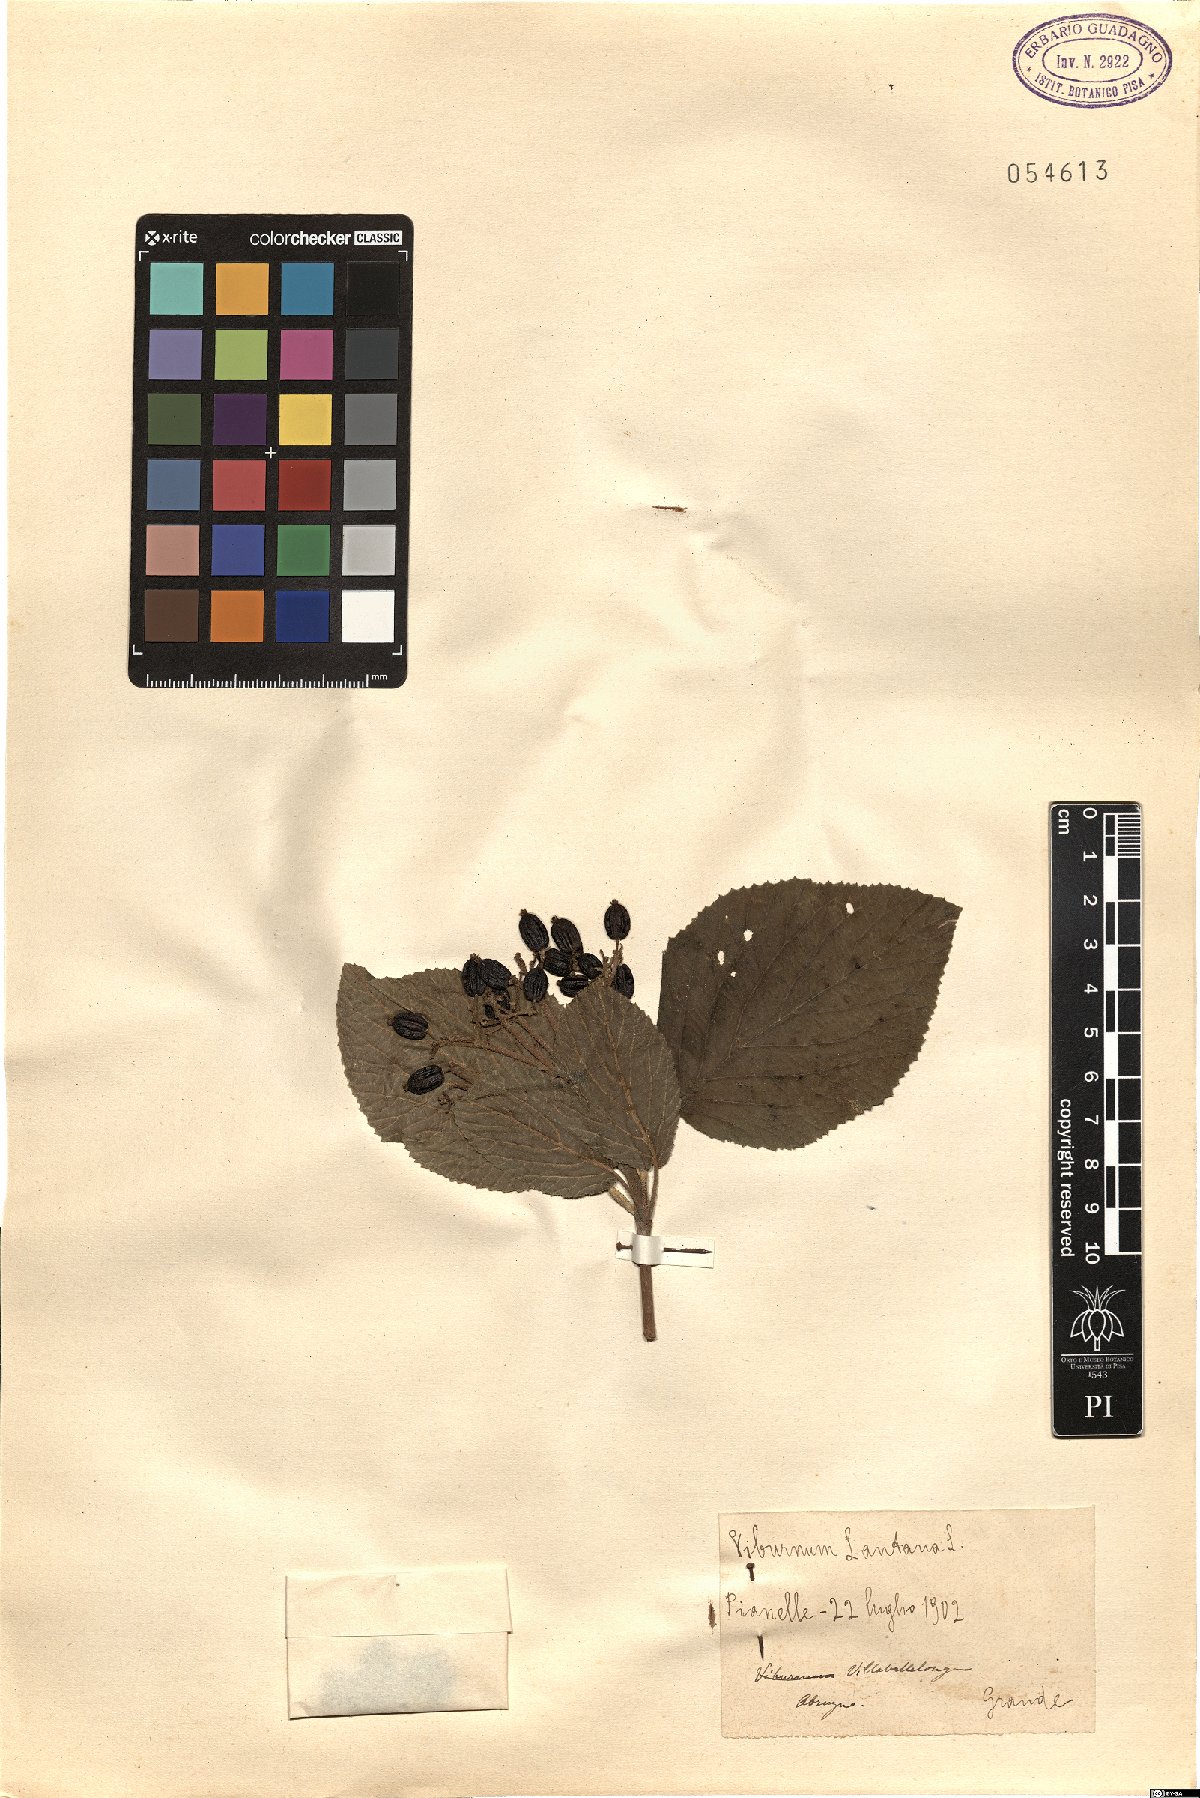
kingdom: Plantae
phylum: Tracheophyta
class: Magnoliopsida
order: Dipsacales
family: Viburnaceae
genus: Viburnum
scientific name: Viburnum lantana
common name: Wayfaring tree
